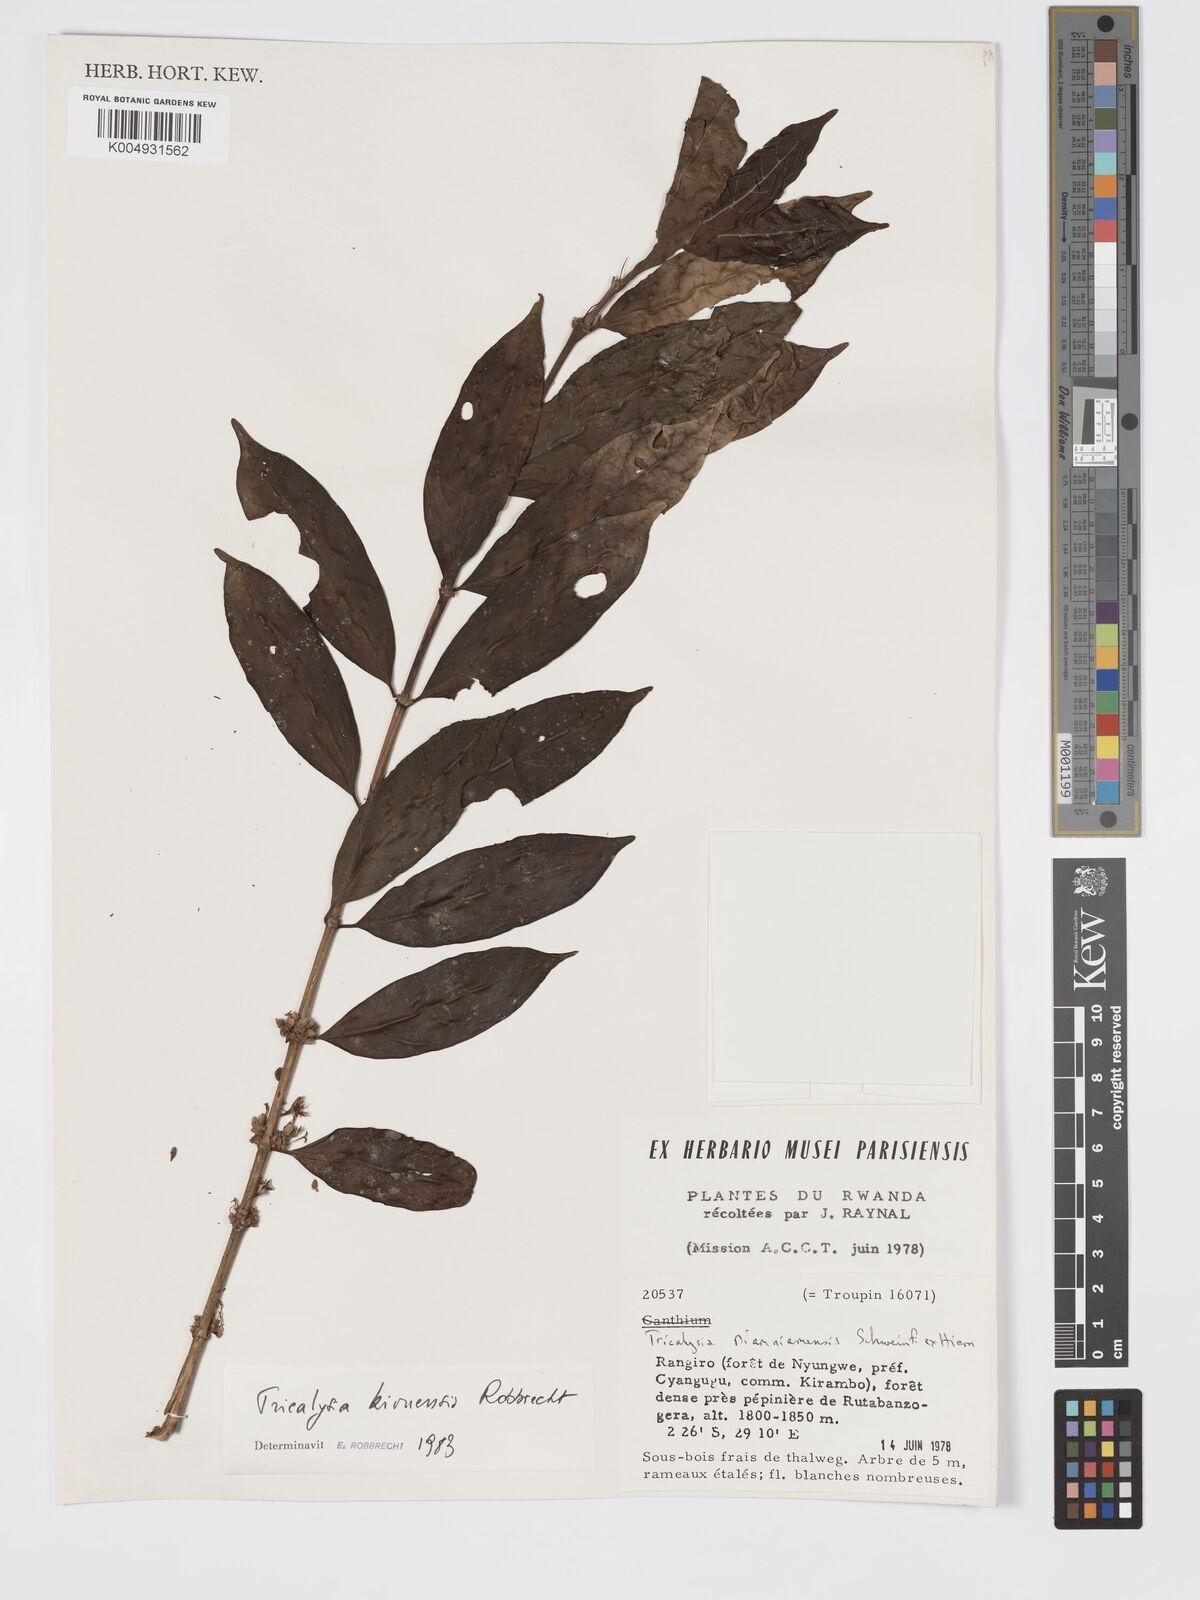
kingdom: Plantae
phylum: Tracheophyta
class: Magnoliopsida
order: Gentianales
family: Rubiaceae
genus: Tricalysia
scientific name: Tricalysia kivuensis
